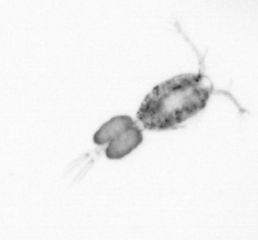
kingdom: Animalia
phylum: Arthropoda
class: Copepoda
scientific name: Copepoda
